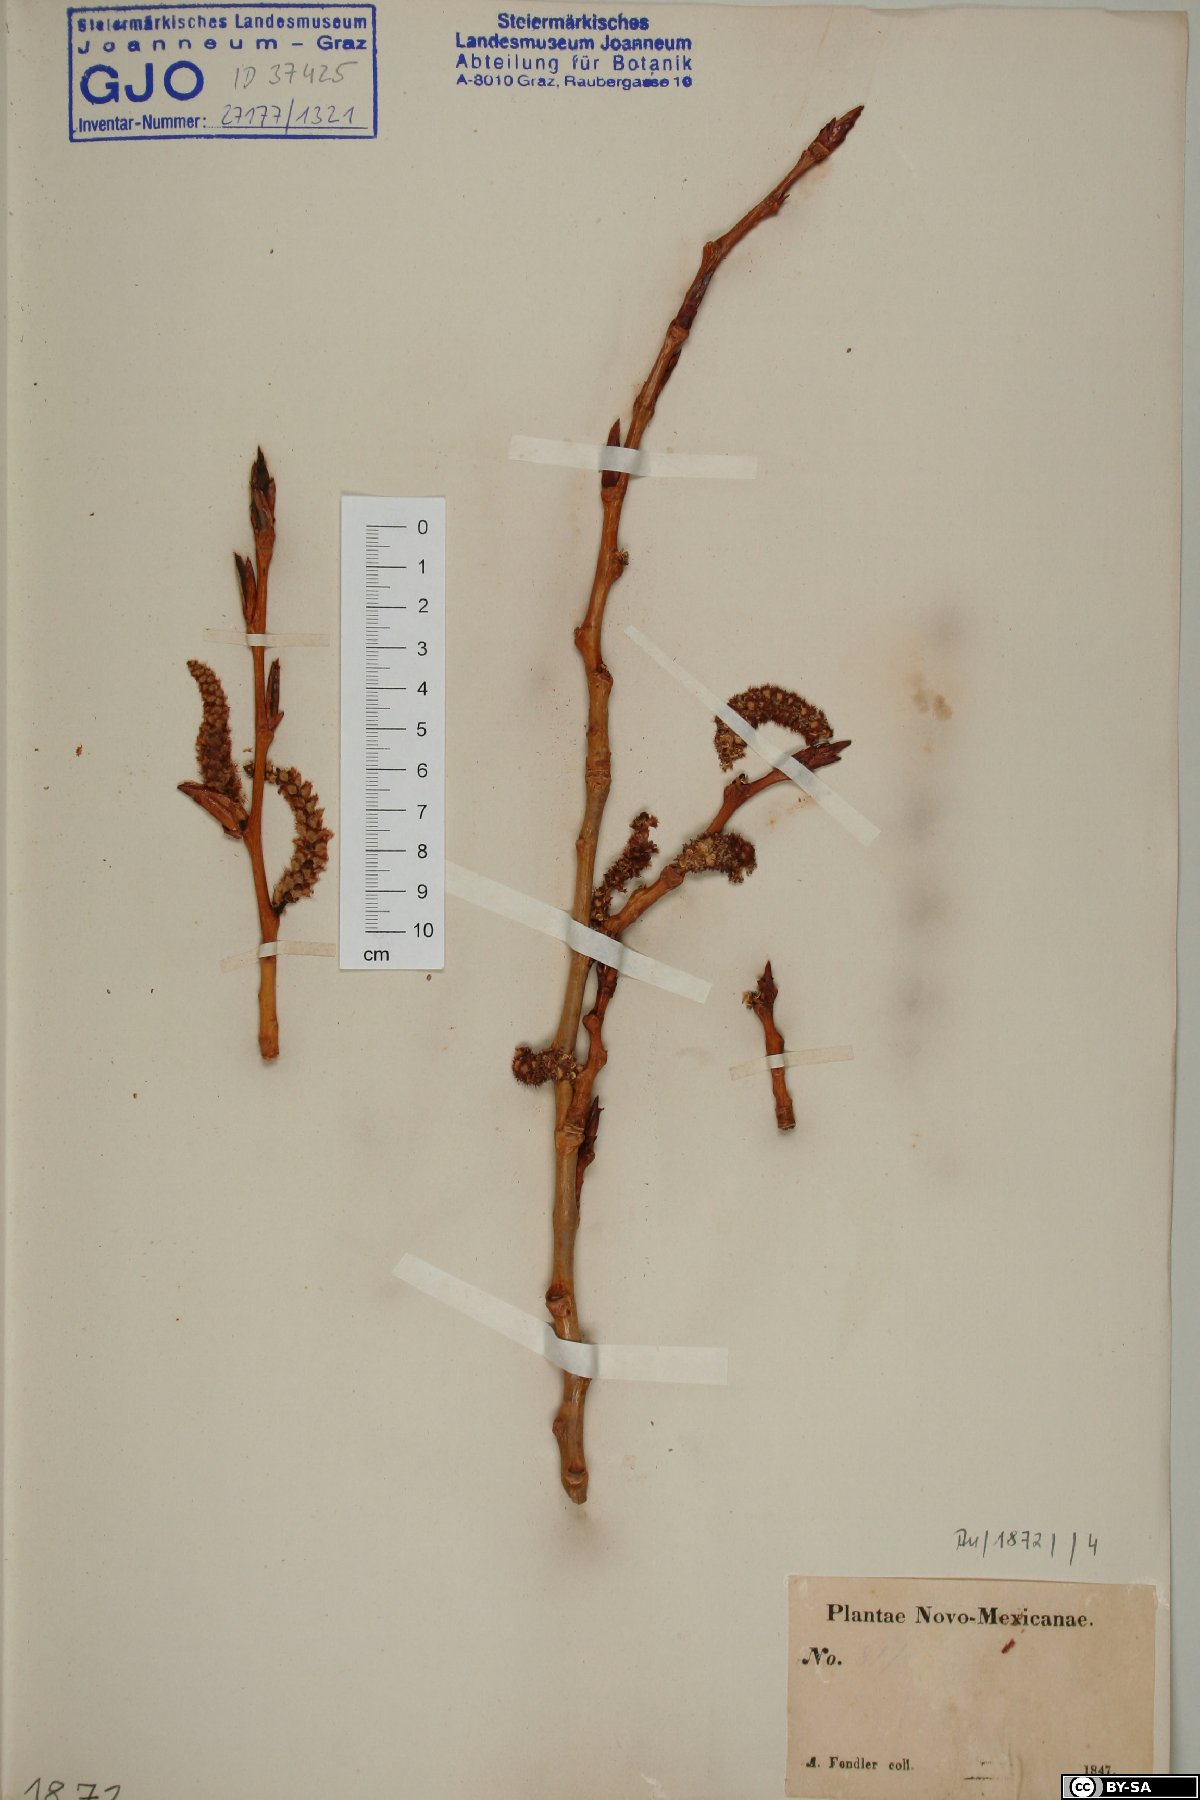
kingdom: Plantae
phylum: Tracheophyta
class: Magnoliopsida
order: Malpighiales
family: Salicaceae
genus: Populus
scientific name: Populus
